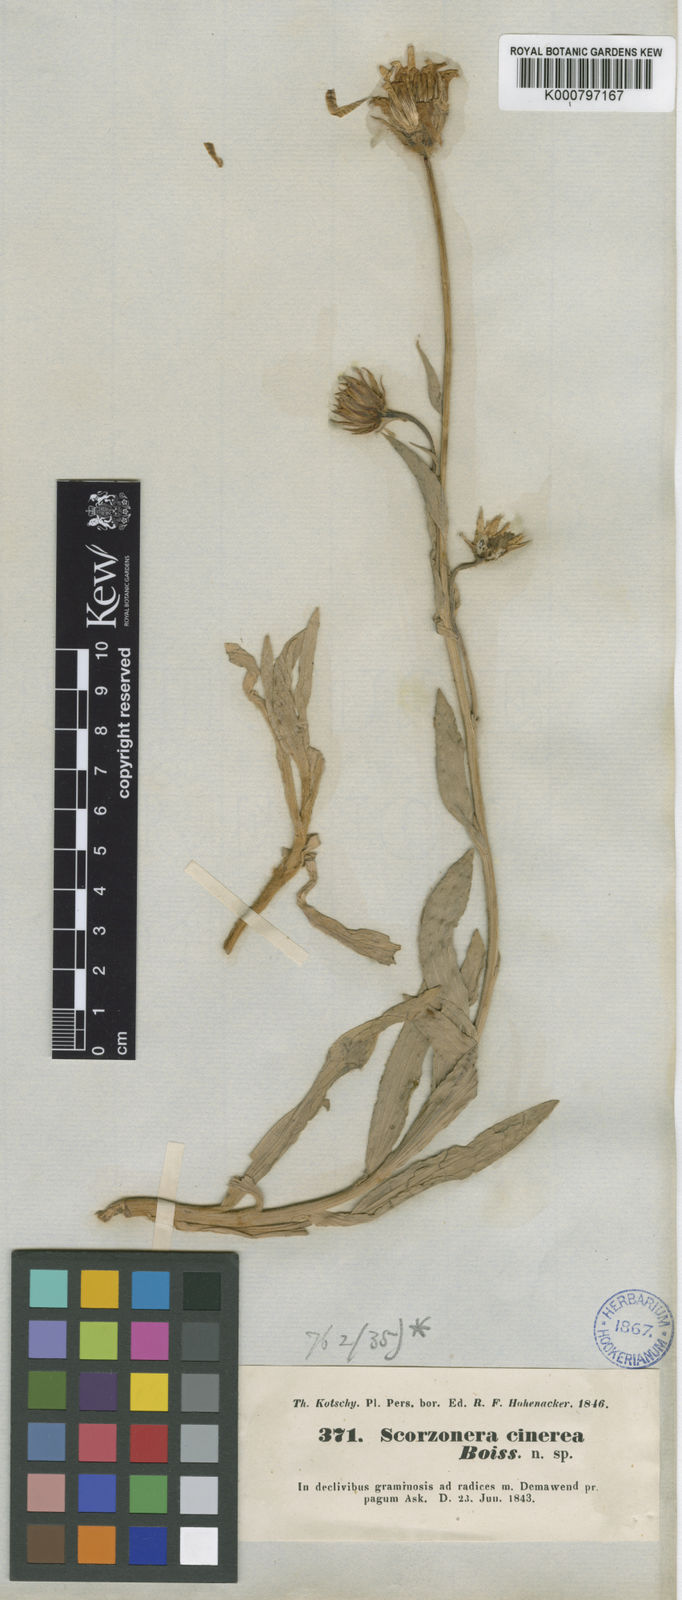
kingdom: Plantae
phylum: Tracheophyta
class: Magnoliopsida
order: Asterales
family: Asteraceae
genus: Cigdemia
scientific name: Cigdemia cinerea
